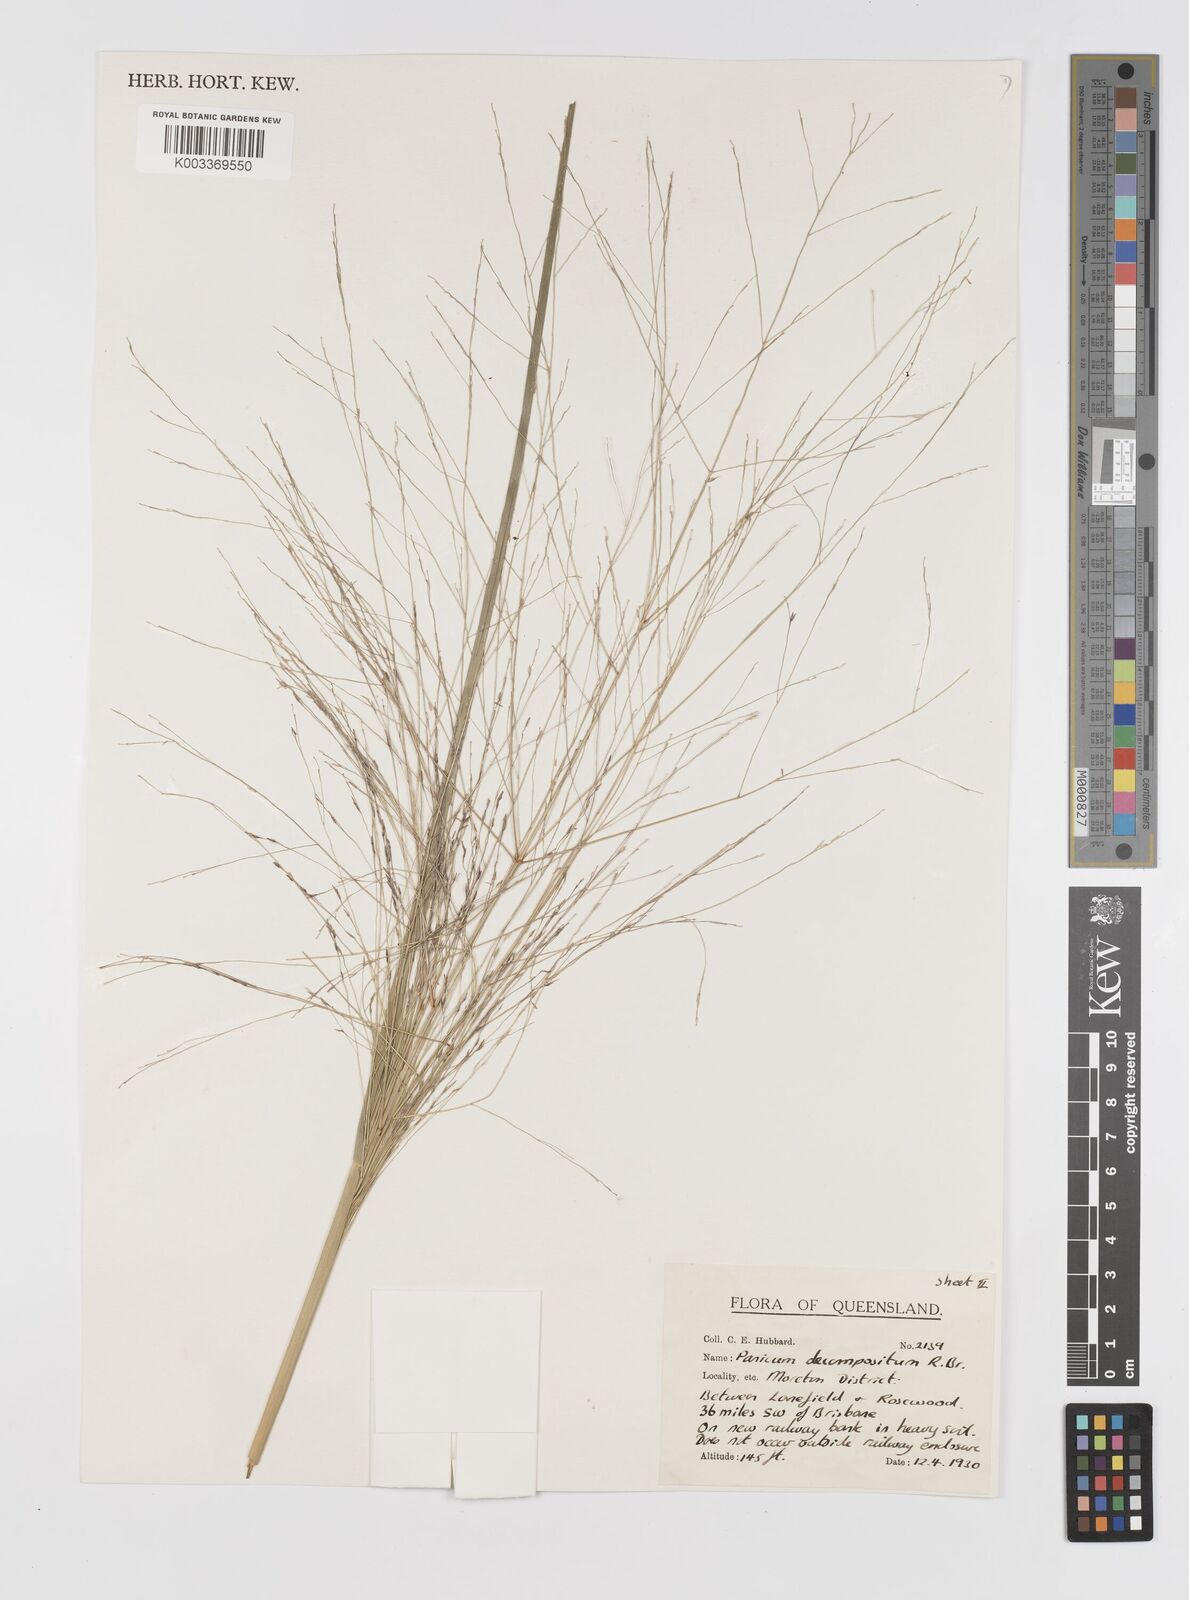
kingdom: Plantae
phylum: Tracheophyta
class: Liliopsida
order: Poales
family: Poaceae
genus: Panicum
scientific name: Panicum decompositum
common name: Australian millet
